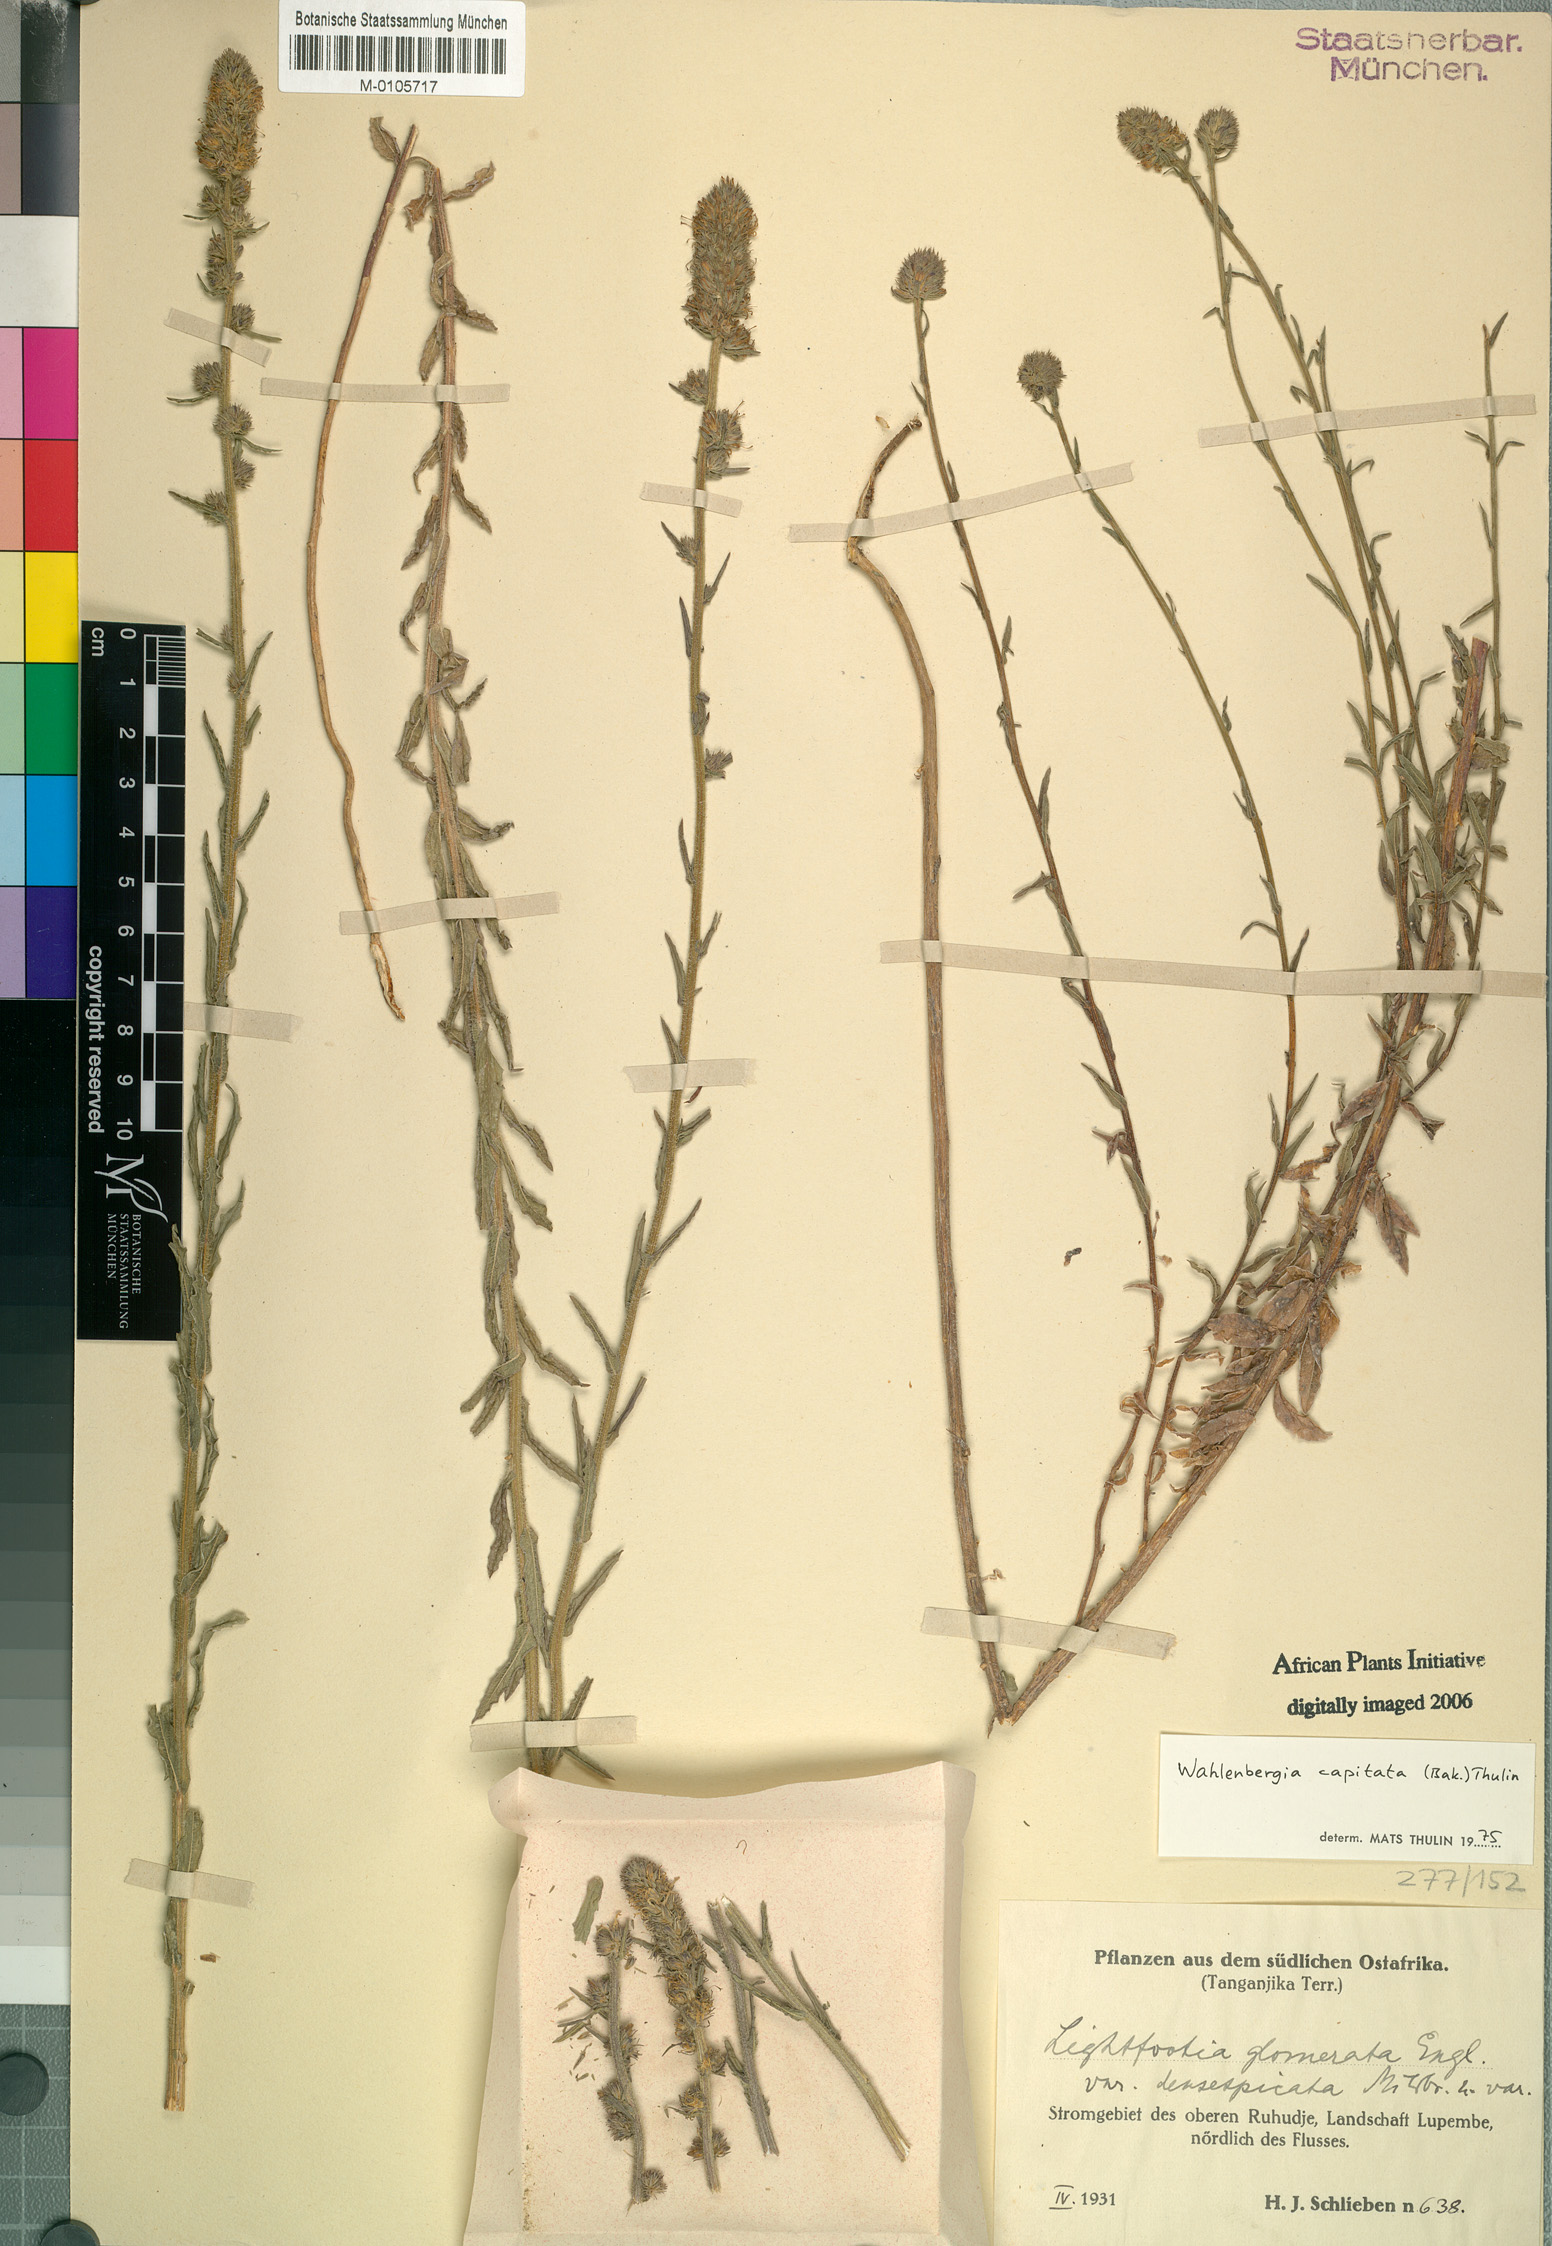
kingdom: Plantae
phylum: Tracheophyta
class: Magnoliopsida
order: Asterales
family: Campanulaceae
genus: Wahlenbergia
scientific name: Wahlenbergia capitata
